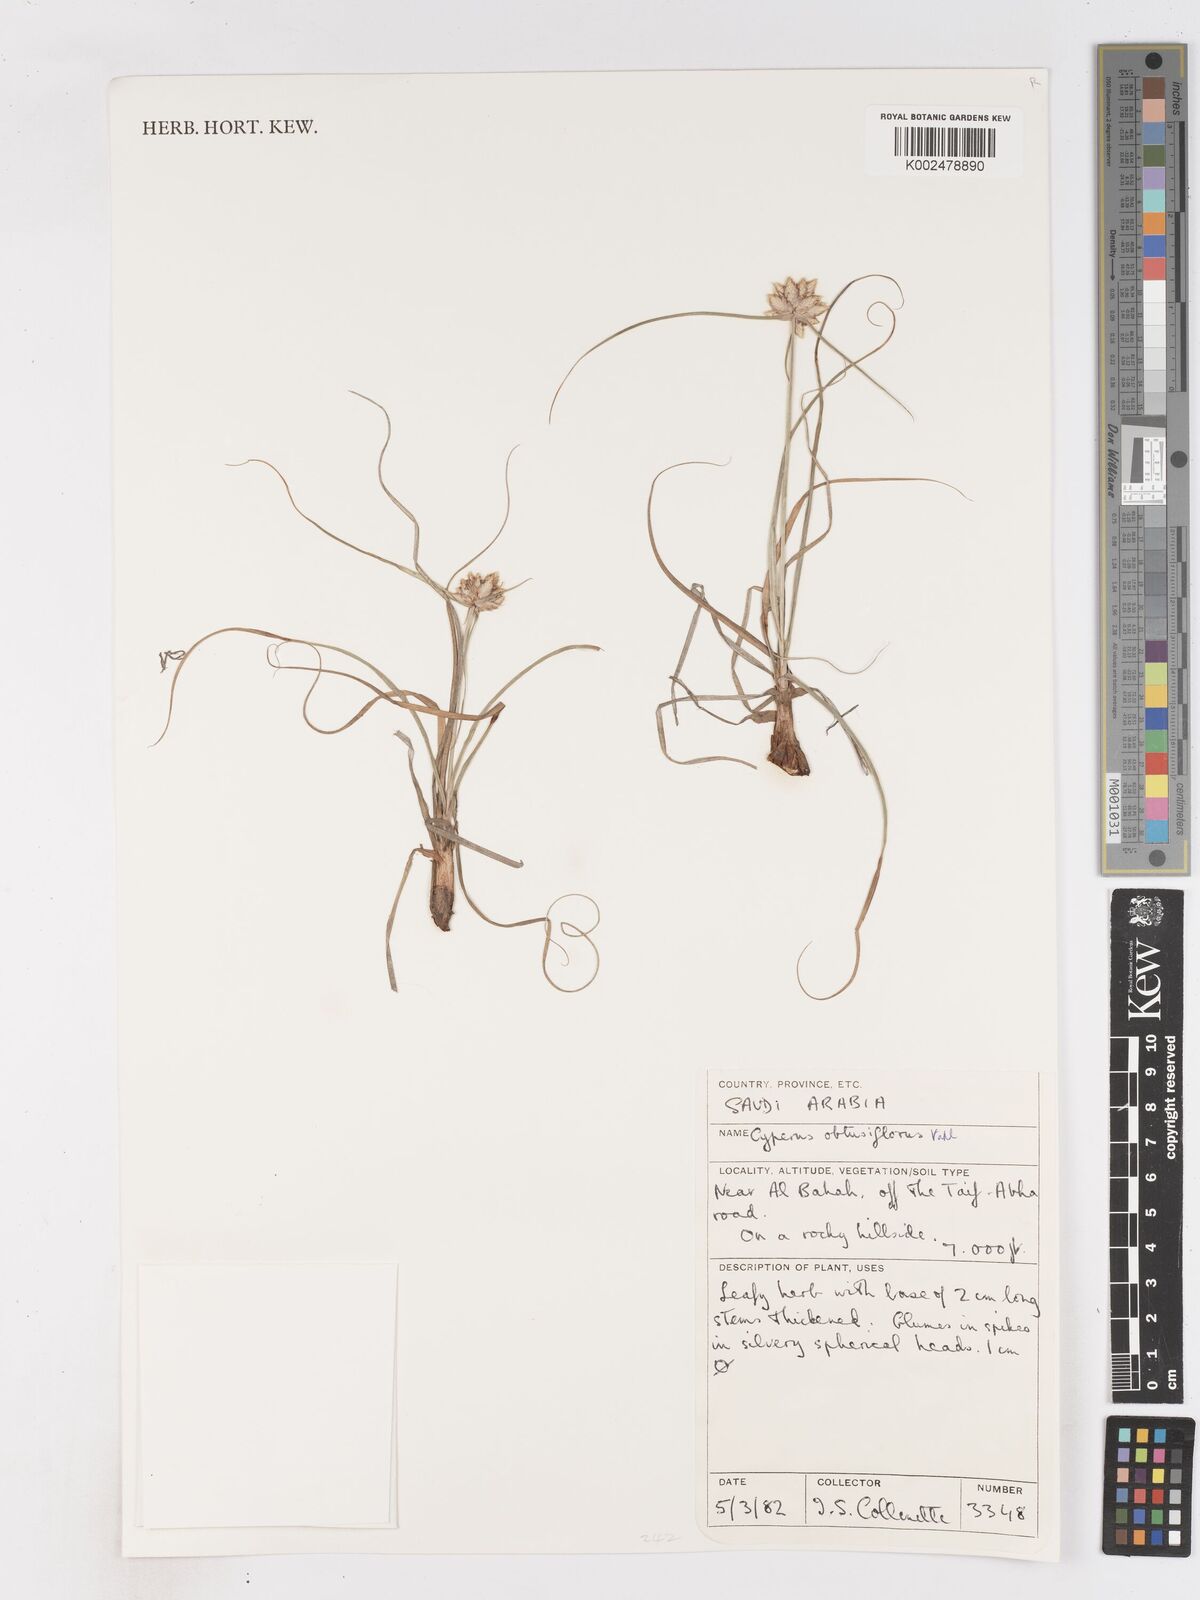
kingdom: Plantae
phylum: Tracheophyta
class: Liliopsida
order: Poales
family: Cyperaceae
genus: Cyperus
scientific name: Cyperus niveus
